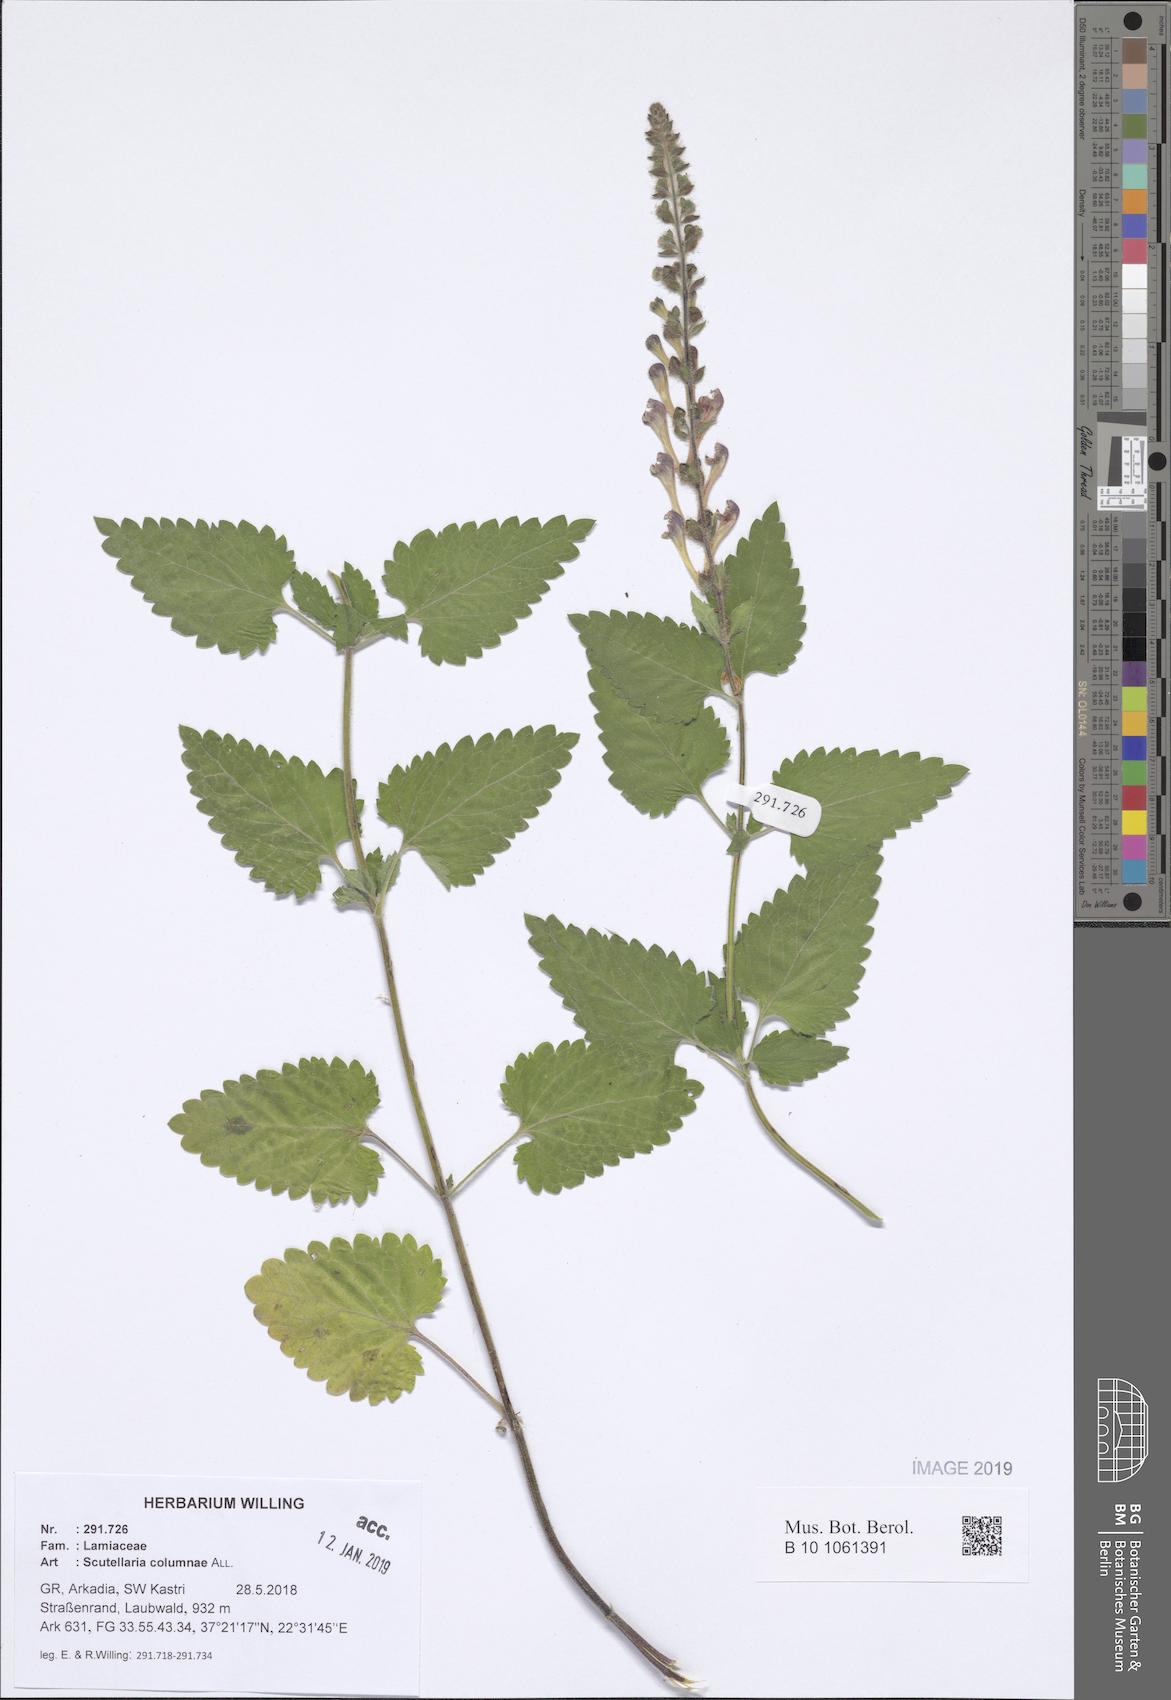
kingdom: Plantae
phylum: Tracheophyta
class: Magnoliopsida
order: Lamiales
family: Lamiaceae
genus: Scutellaria
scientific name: Scutellaria columnae
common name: Large skullcap
